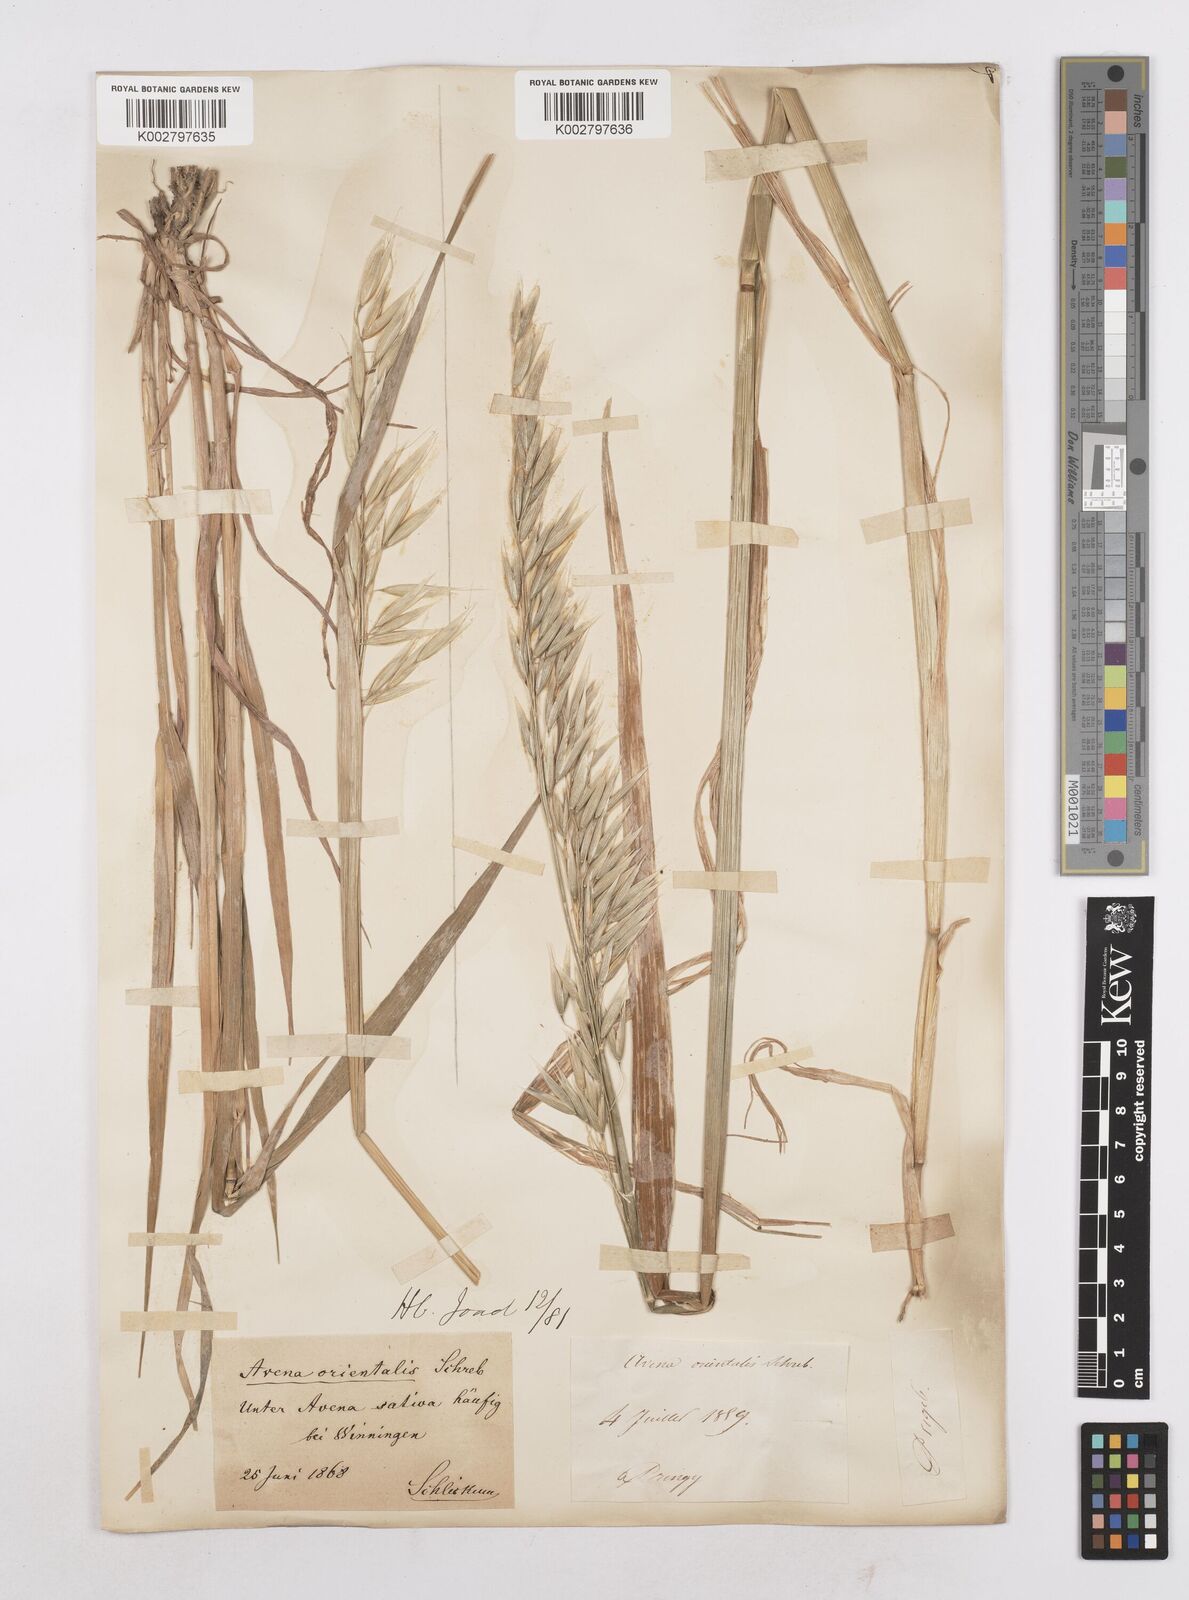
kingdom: Plantae
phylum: Tracheophyta
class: Liliopsida
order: Poales
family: Poaceae
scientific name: Poaceae
